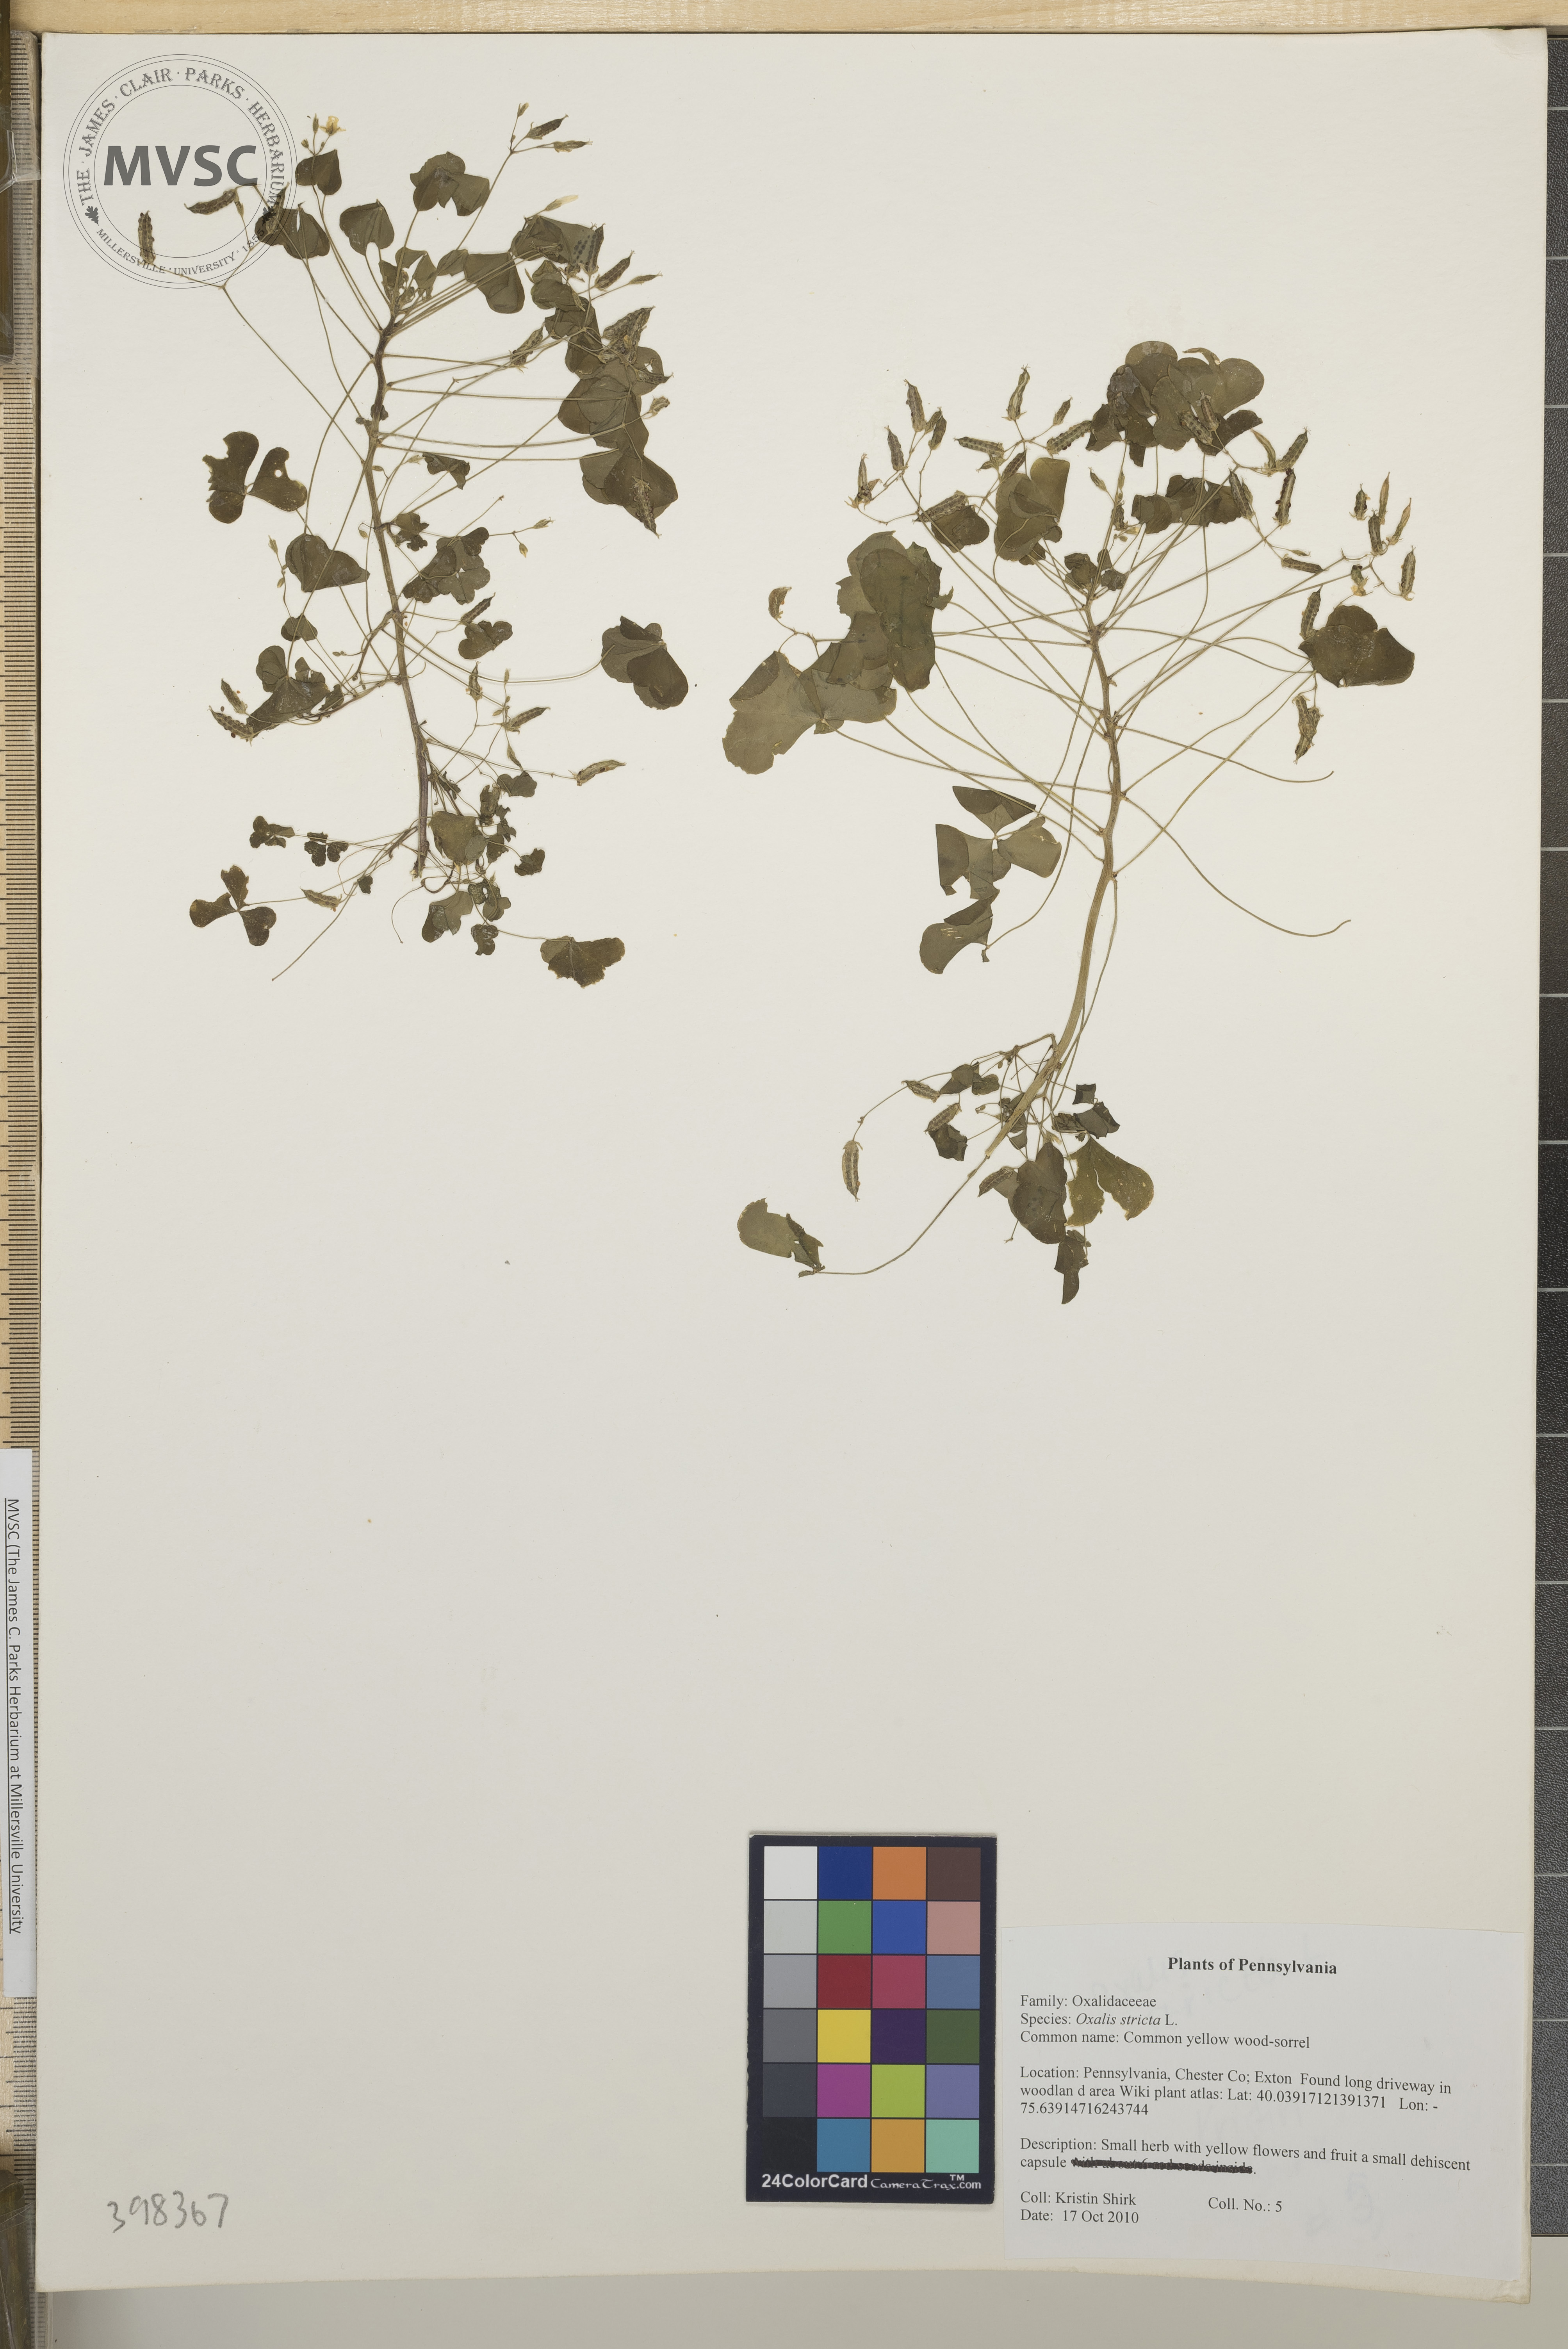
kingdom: Plantae
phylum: Tracheophyta
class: Magnoliopsida
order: Oxalidales
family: Oxalidaceae
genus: Oxalis
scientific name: Oxalis stricta
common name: Common yellow wood-sorrel
